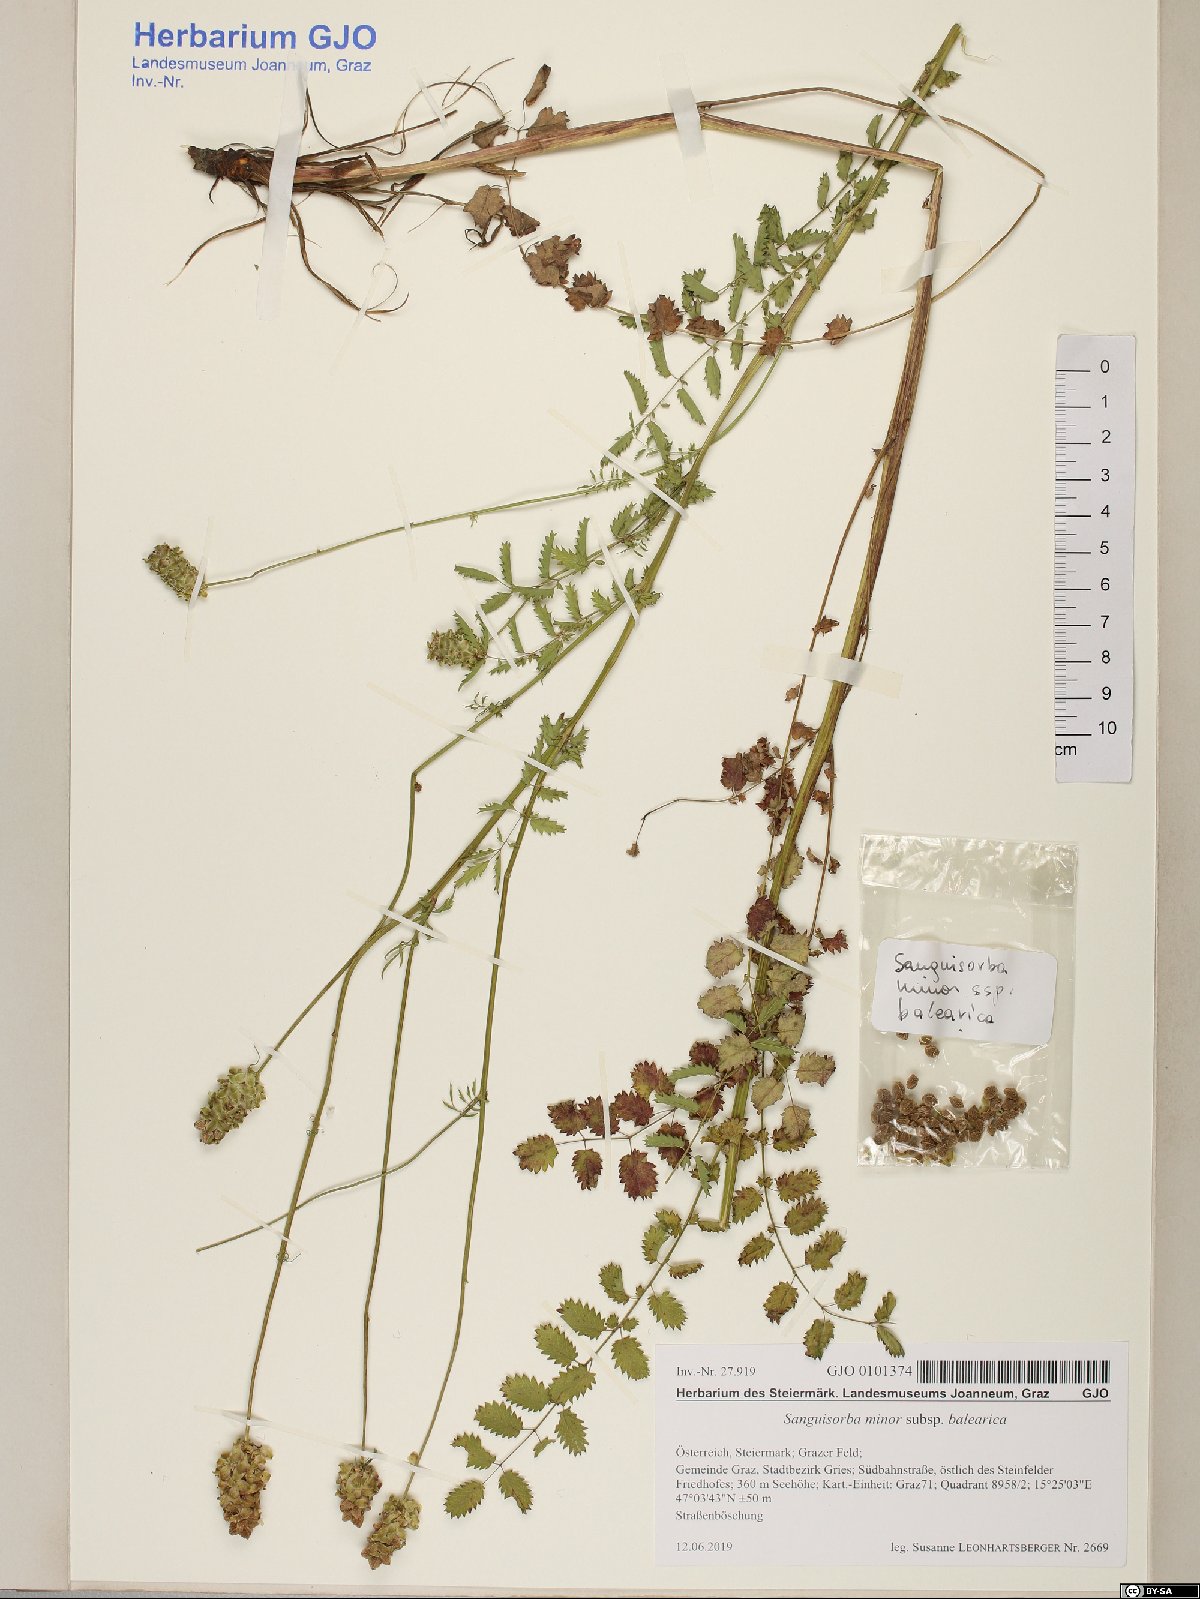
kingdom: Plantae
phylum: Tracheophyta
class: Magnoliopsida
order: Rosales
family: Rosaceae
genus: Poterium
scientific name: Poterium sanguisorba
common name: Salad burnet
